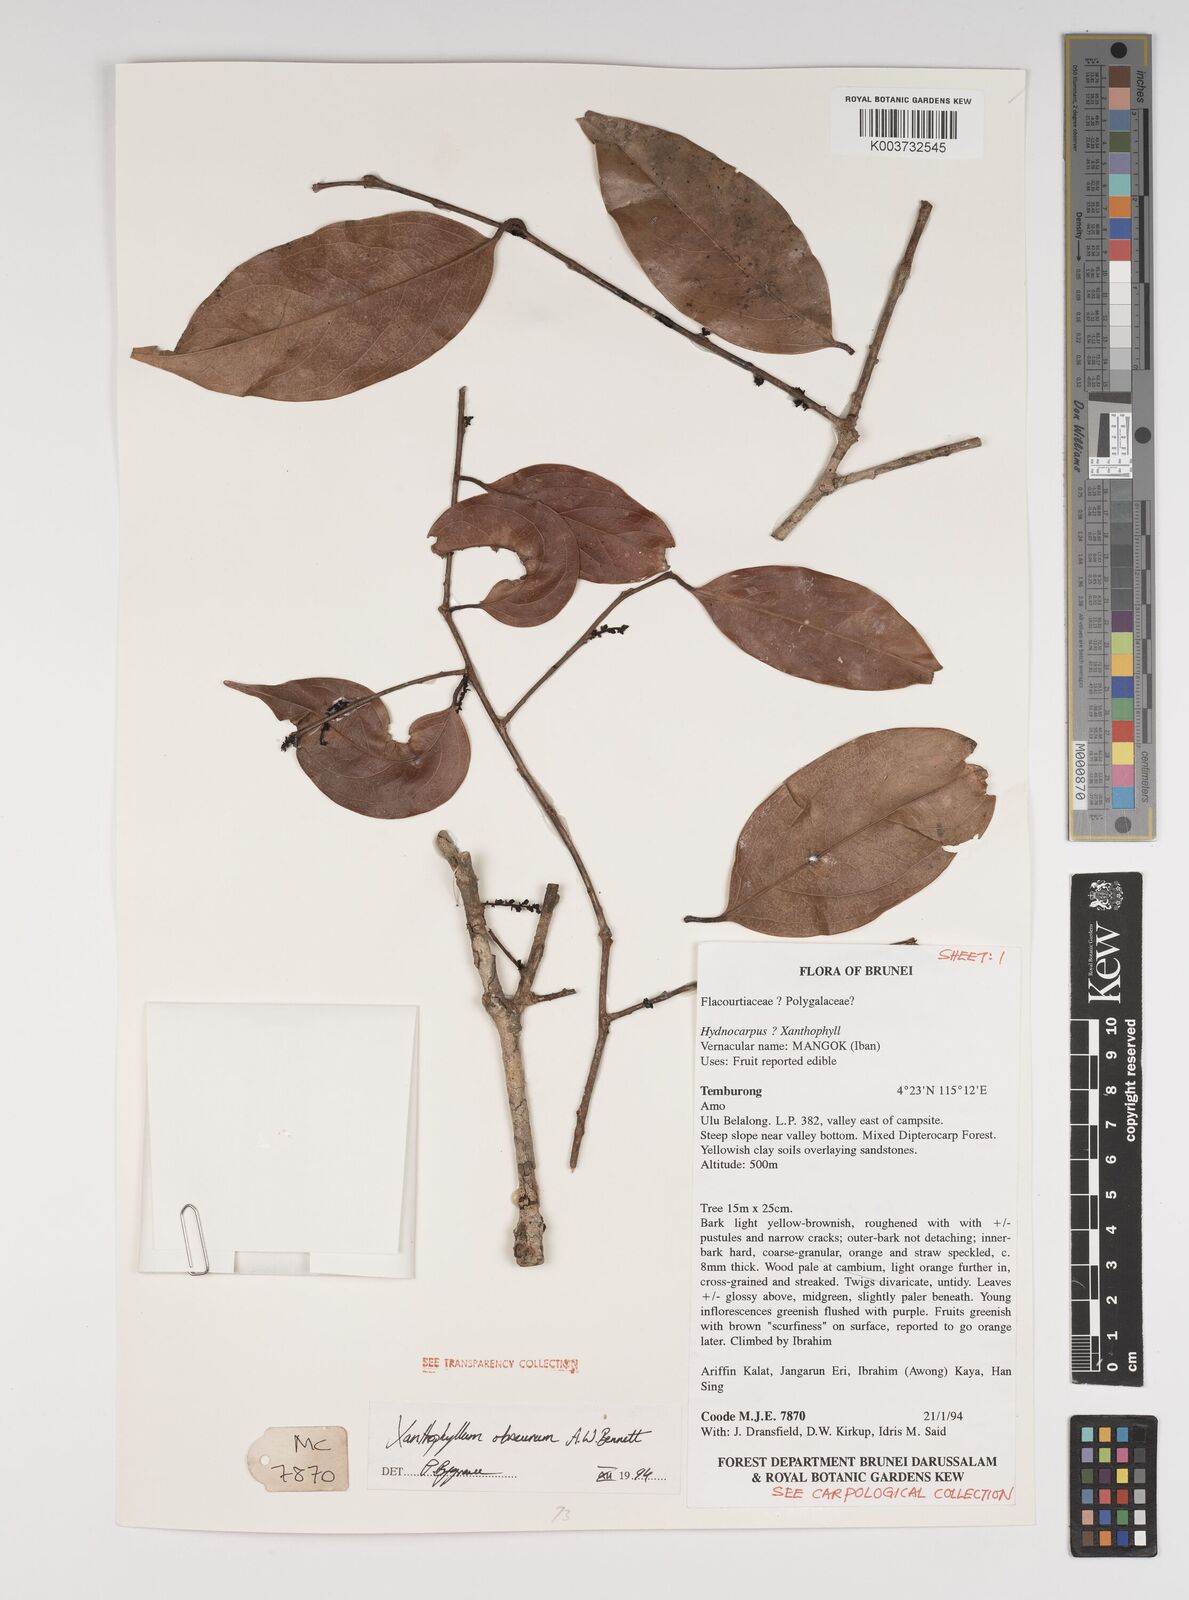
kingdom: Plantae
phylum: Tracheophyta
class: Magnoliopsida
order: Fabales
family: Polygalaceae
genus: Xanthophyllum
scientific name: Xanthophyllum obscurum
